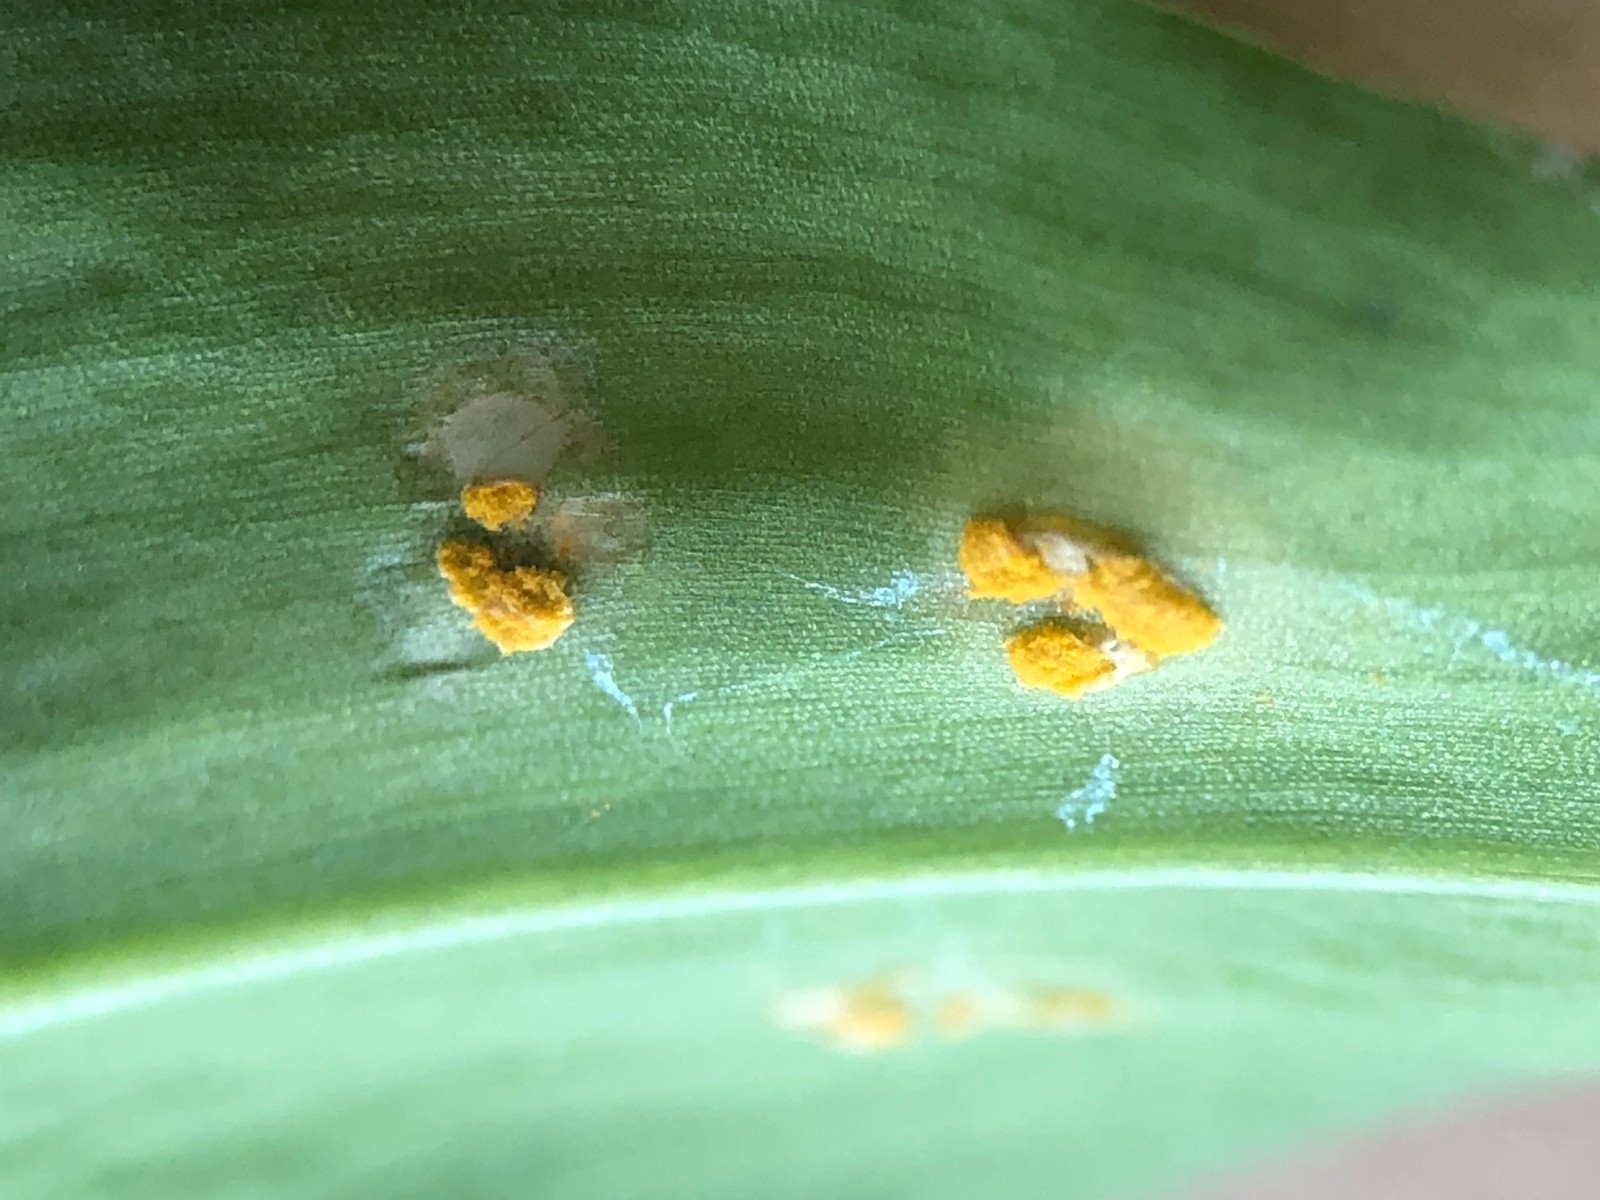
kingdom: Fungi
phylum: Basidiomycota
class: Pucciniomycetes
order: Pucciniales
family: Melampsoraceae
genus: Melampsora
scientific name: Melampsora
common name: skorperust
